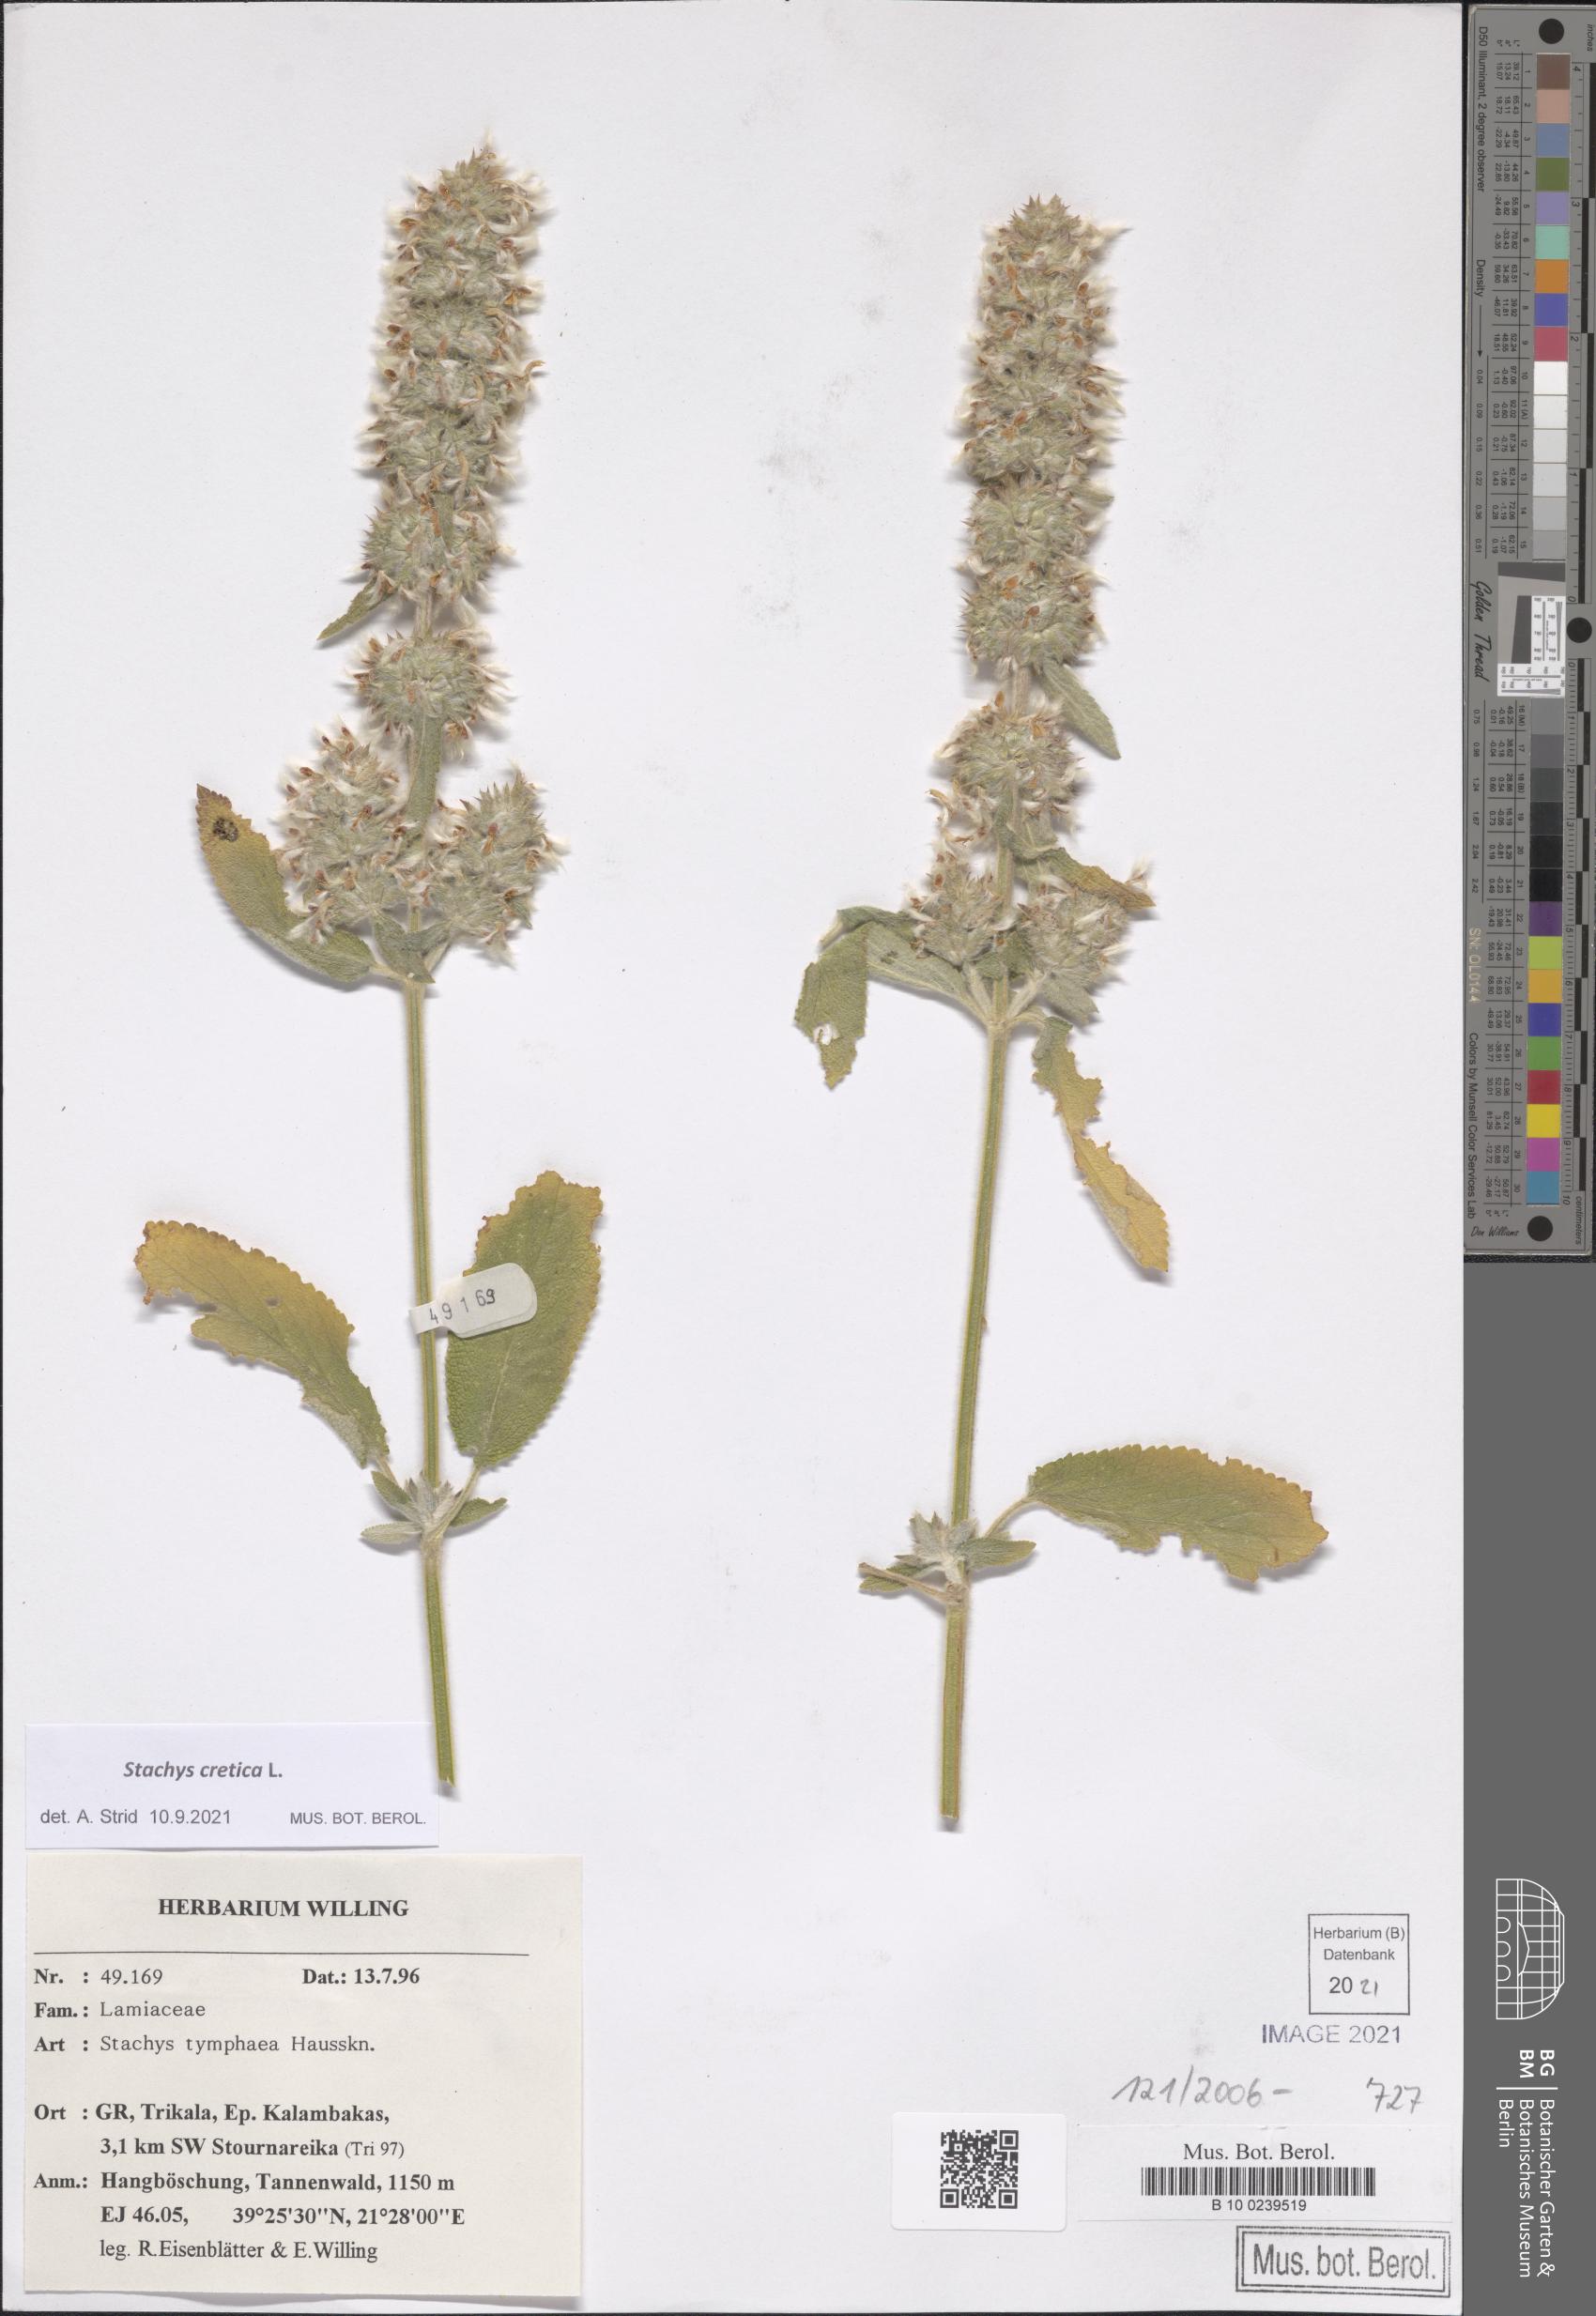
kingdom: Plantae
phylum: Tracheophyta
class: Magnoliopsida
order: Lamiales
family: Lamiaceae
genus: Stachys
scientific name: Stachys cretica
